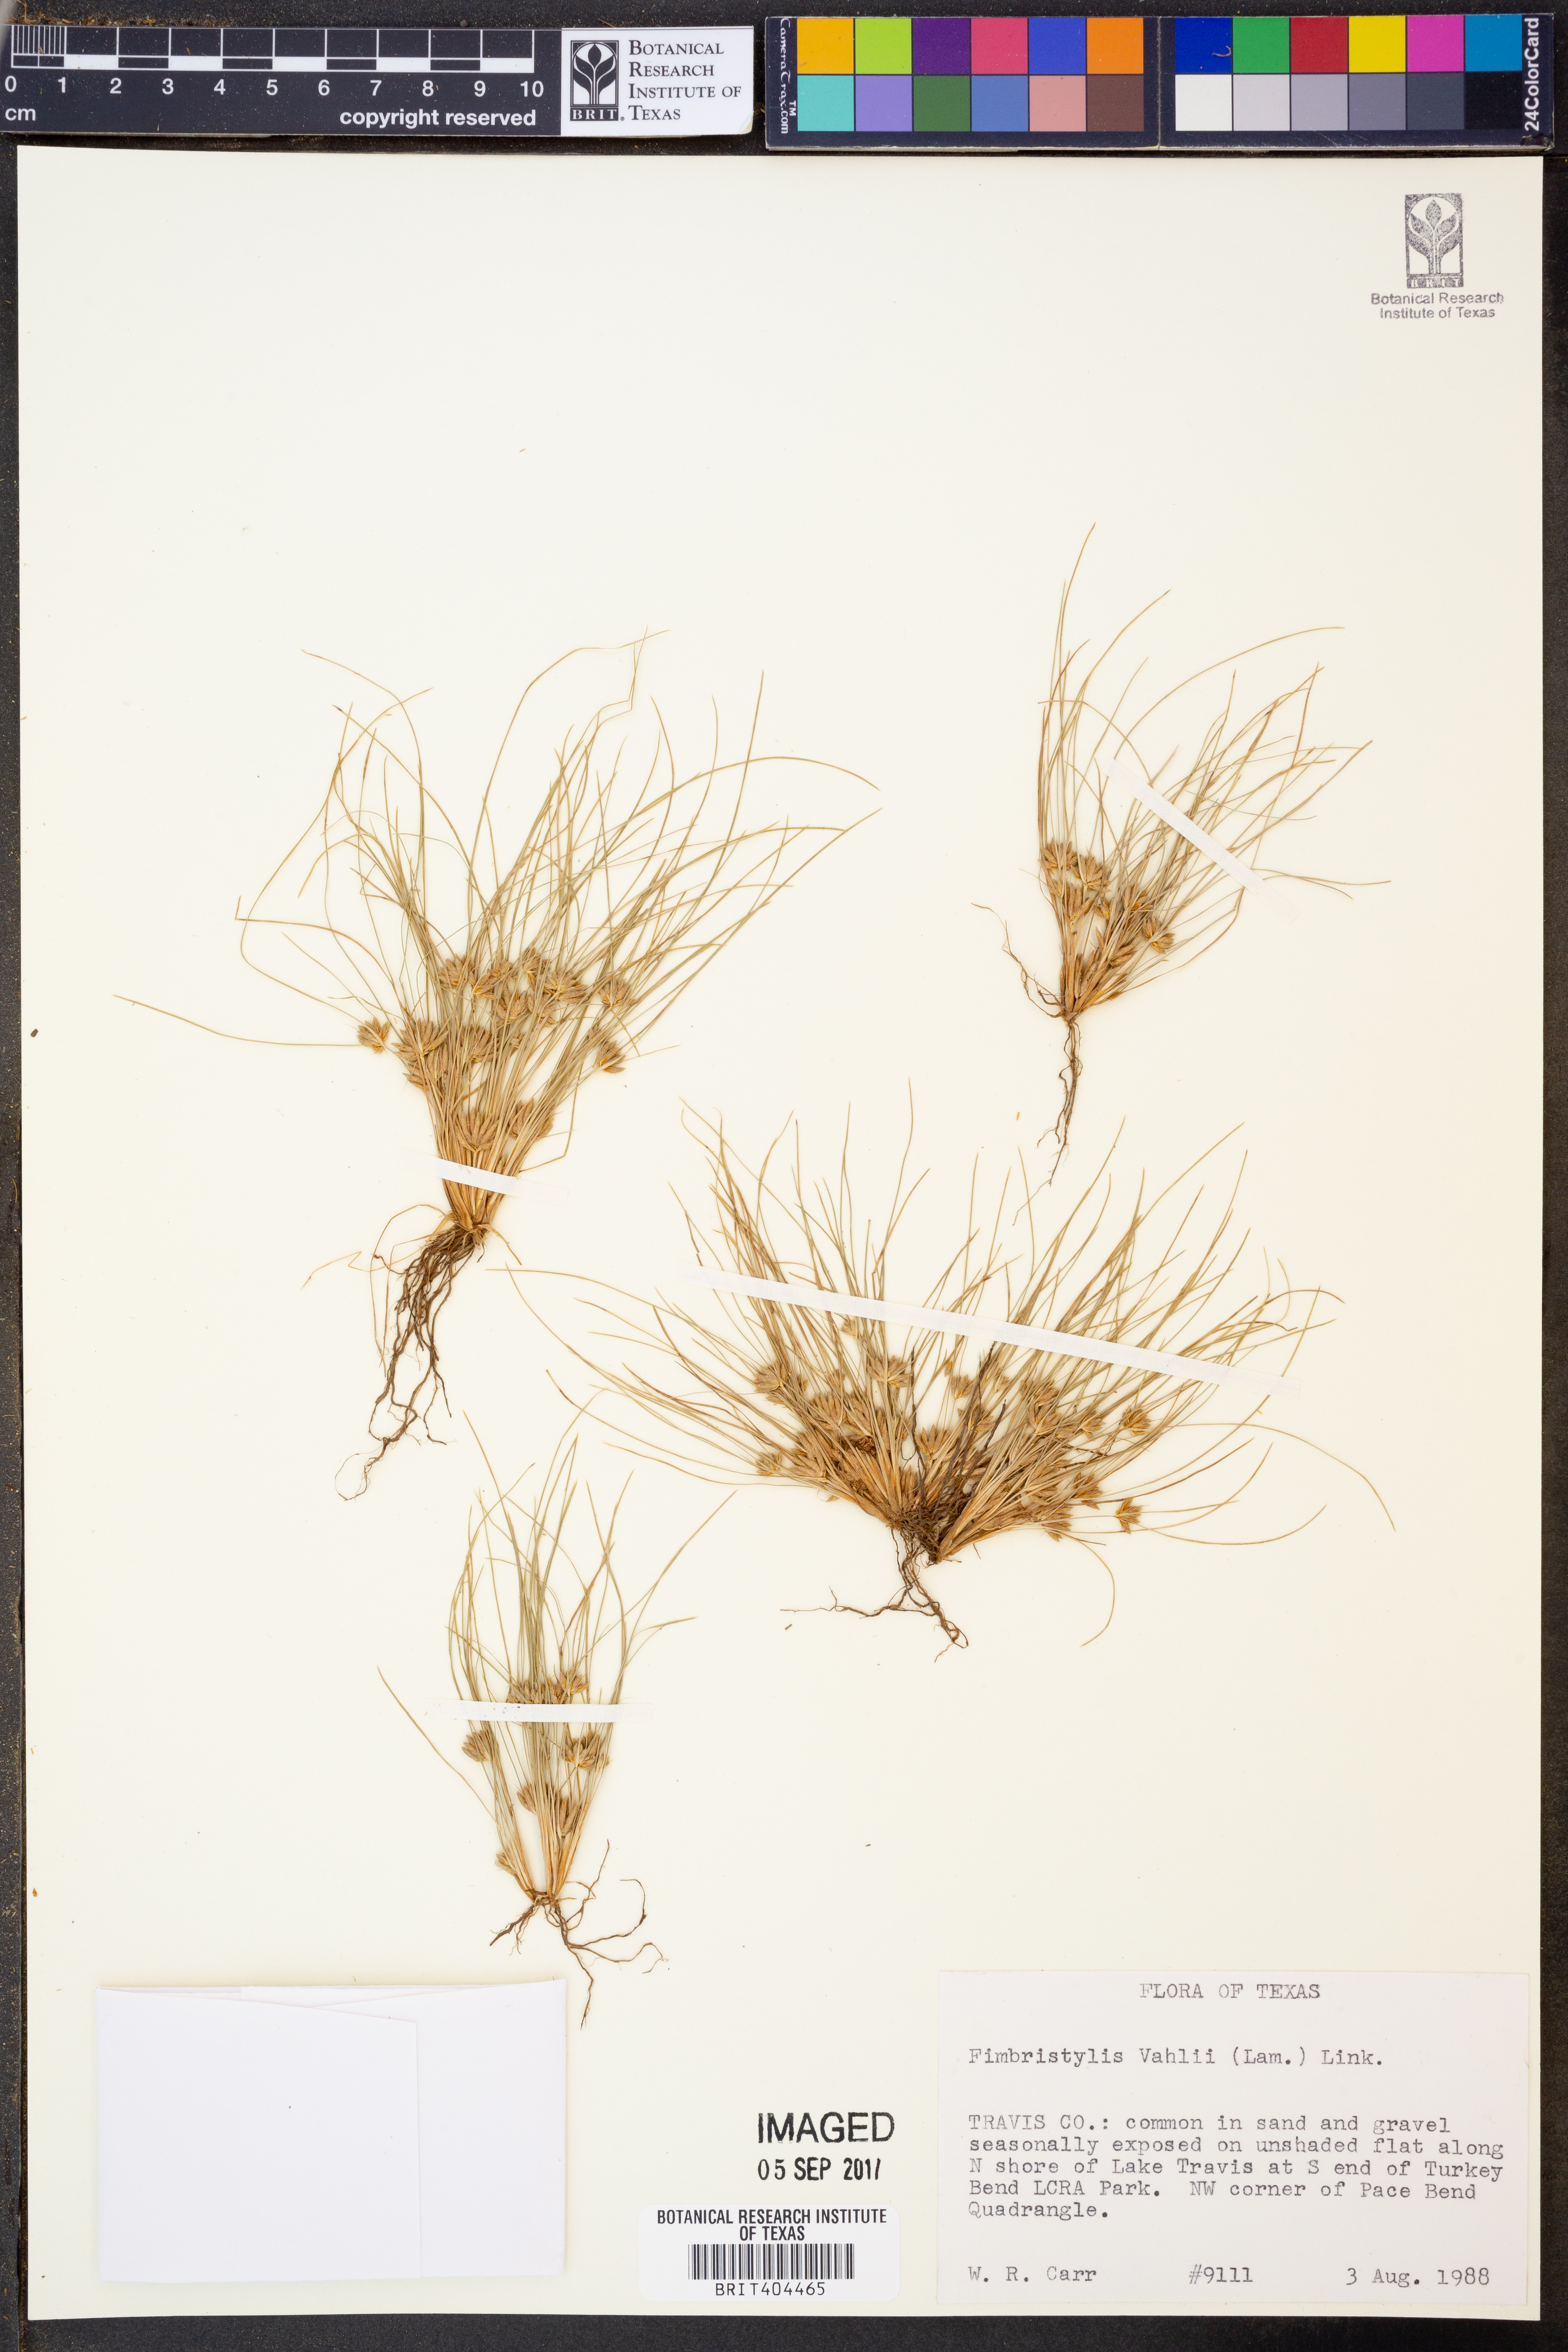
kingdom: Plantae
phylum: Tracheophyta
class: Liliopsida
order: Poales
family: Cyperaceae
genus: Fimbristylis
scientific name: Fimbristylis vahlii
